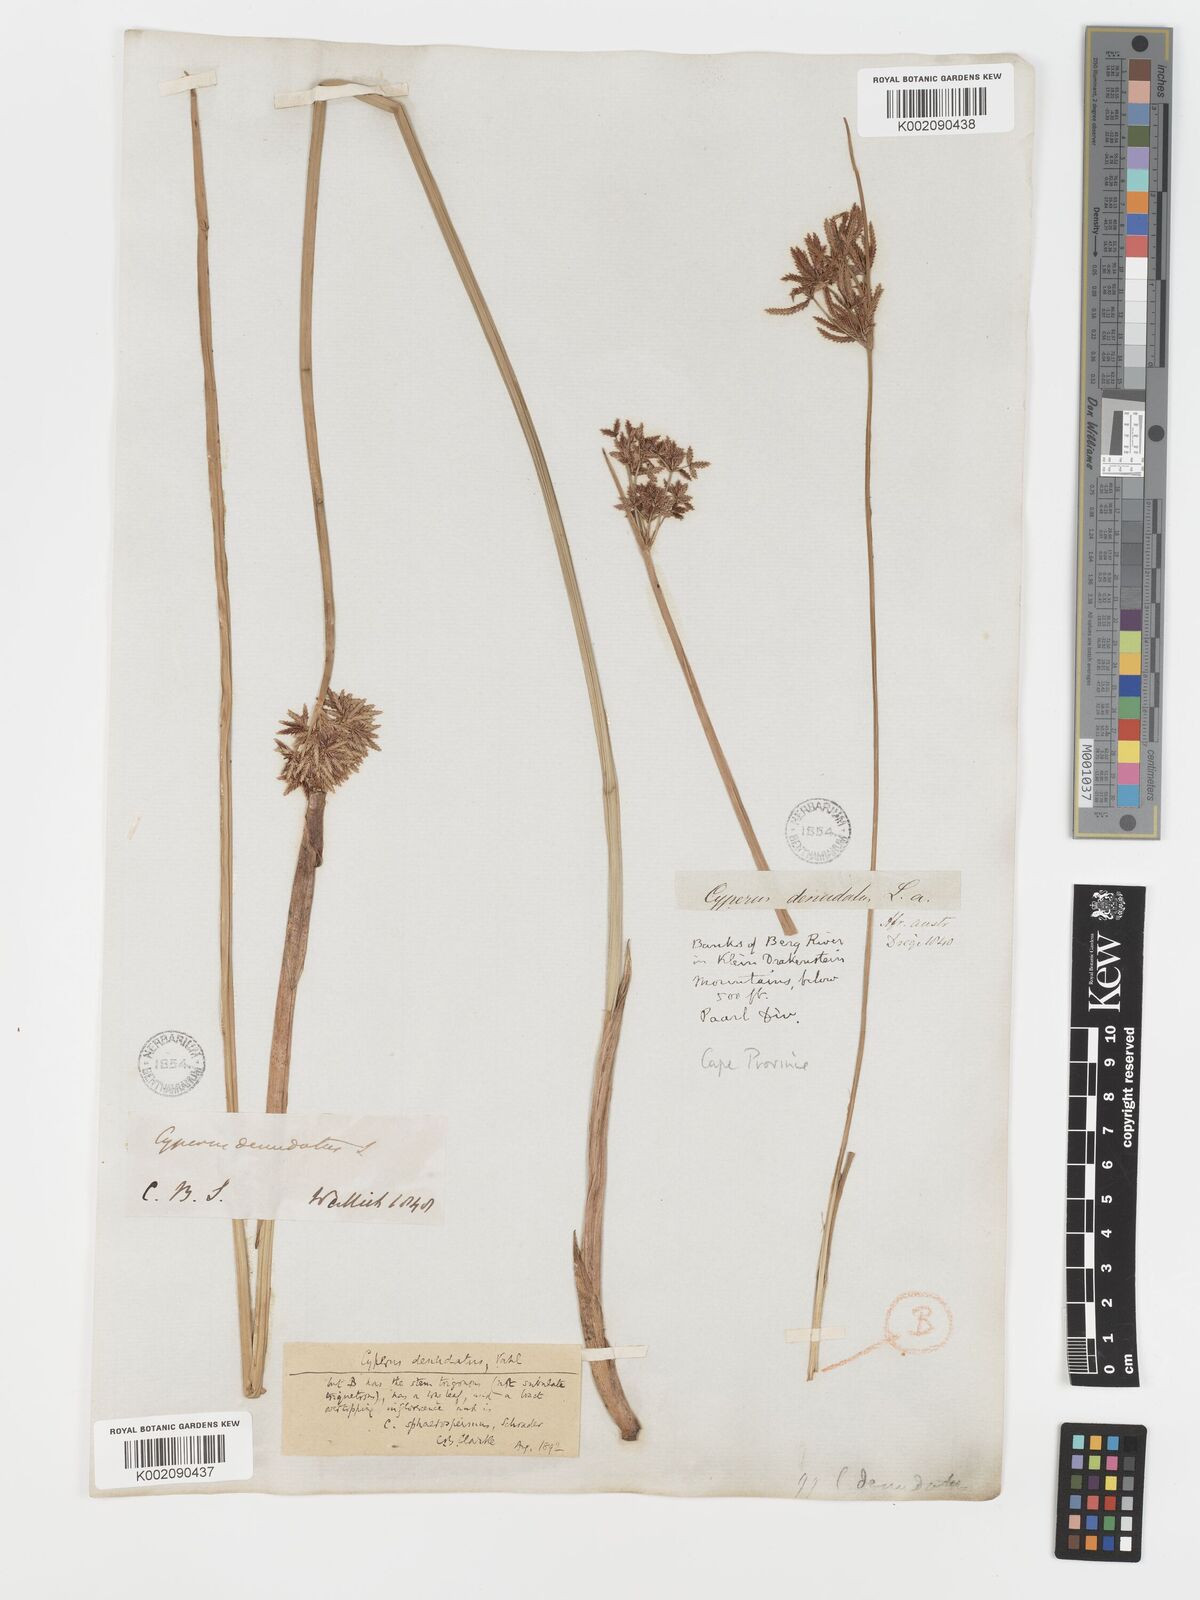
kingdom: Plantae
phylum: Tracheophyta
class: Liliopsida
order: Poales
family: Cyperaceae
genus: Cyperus
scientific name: Cyperus denudatus
